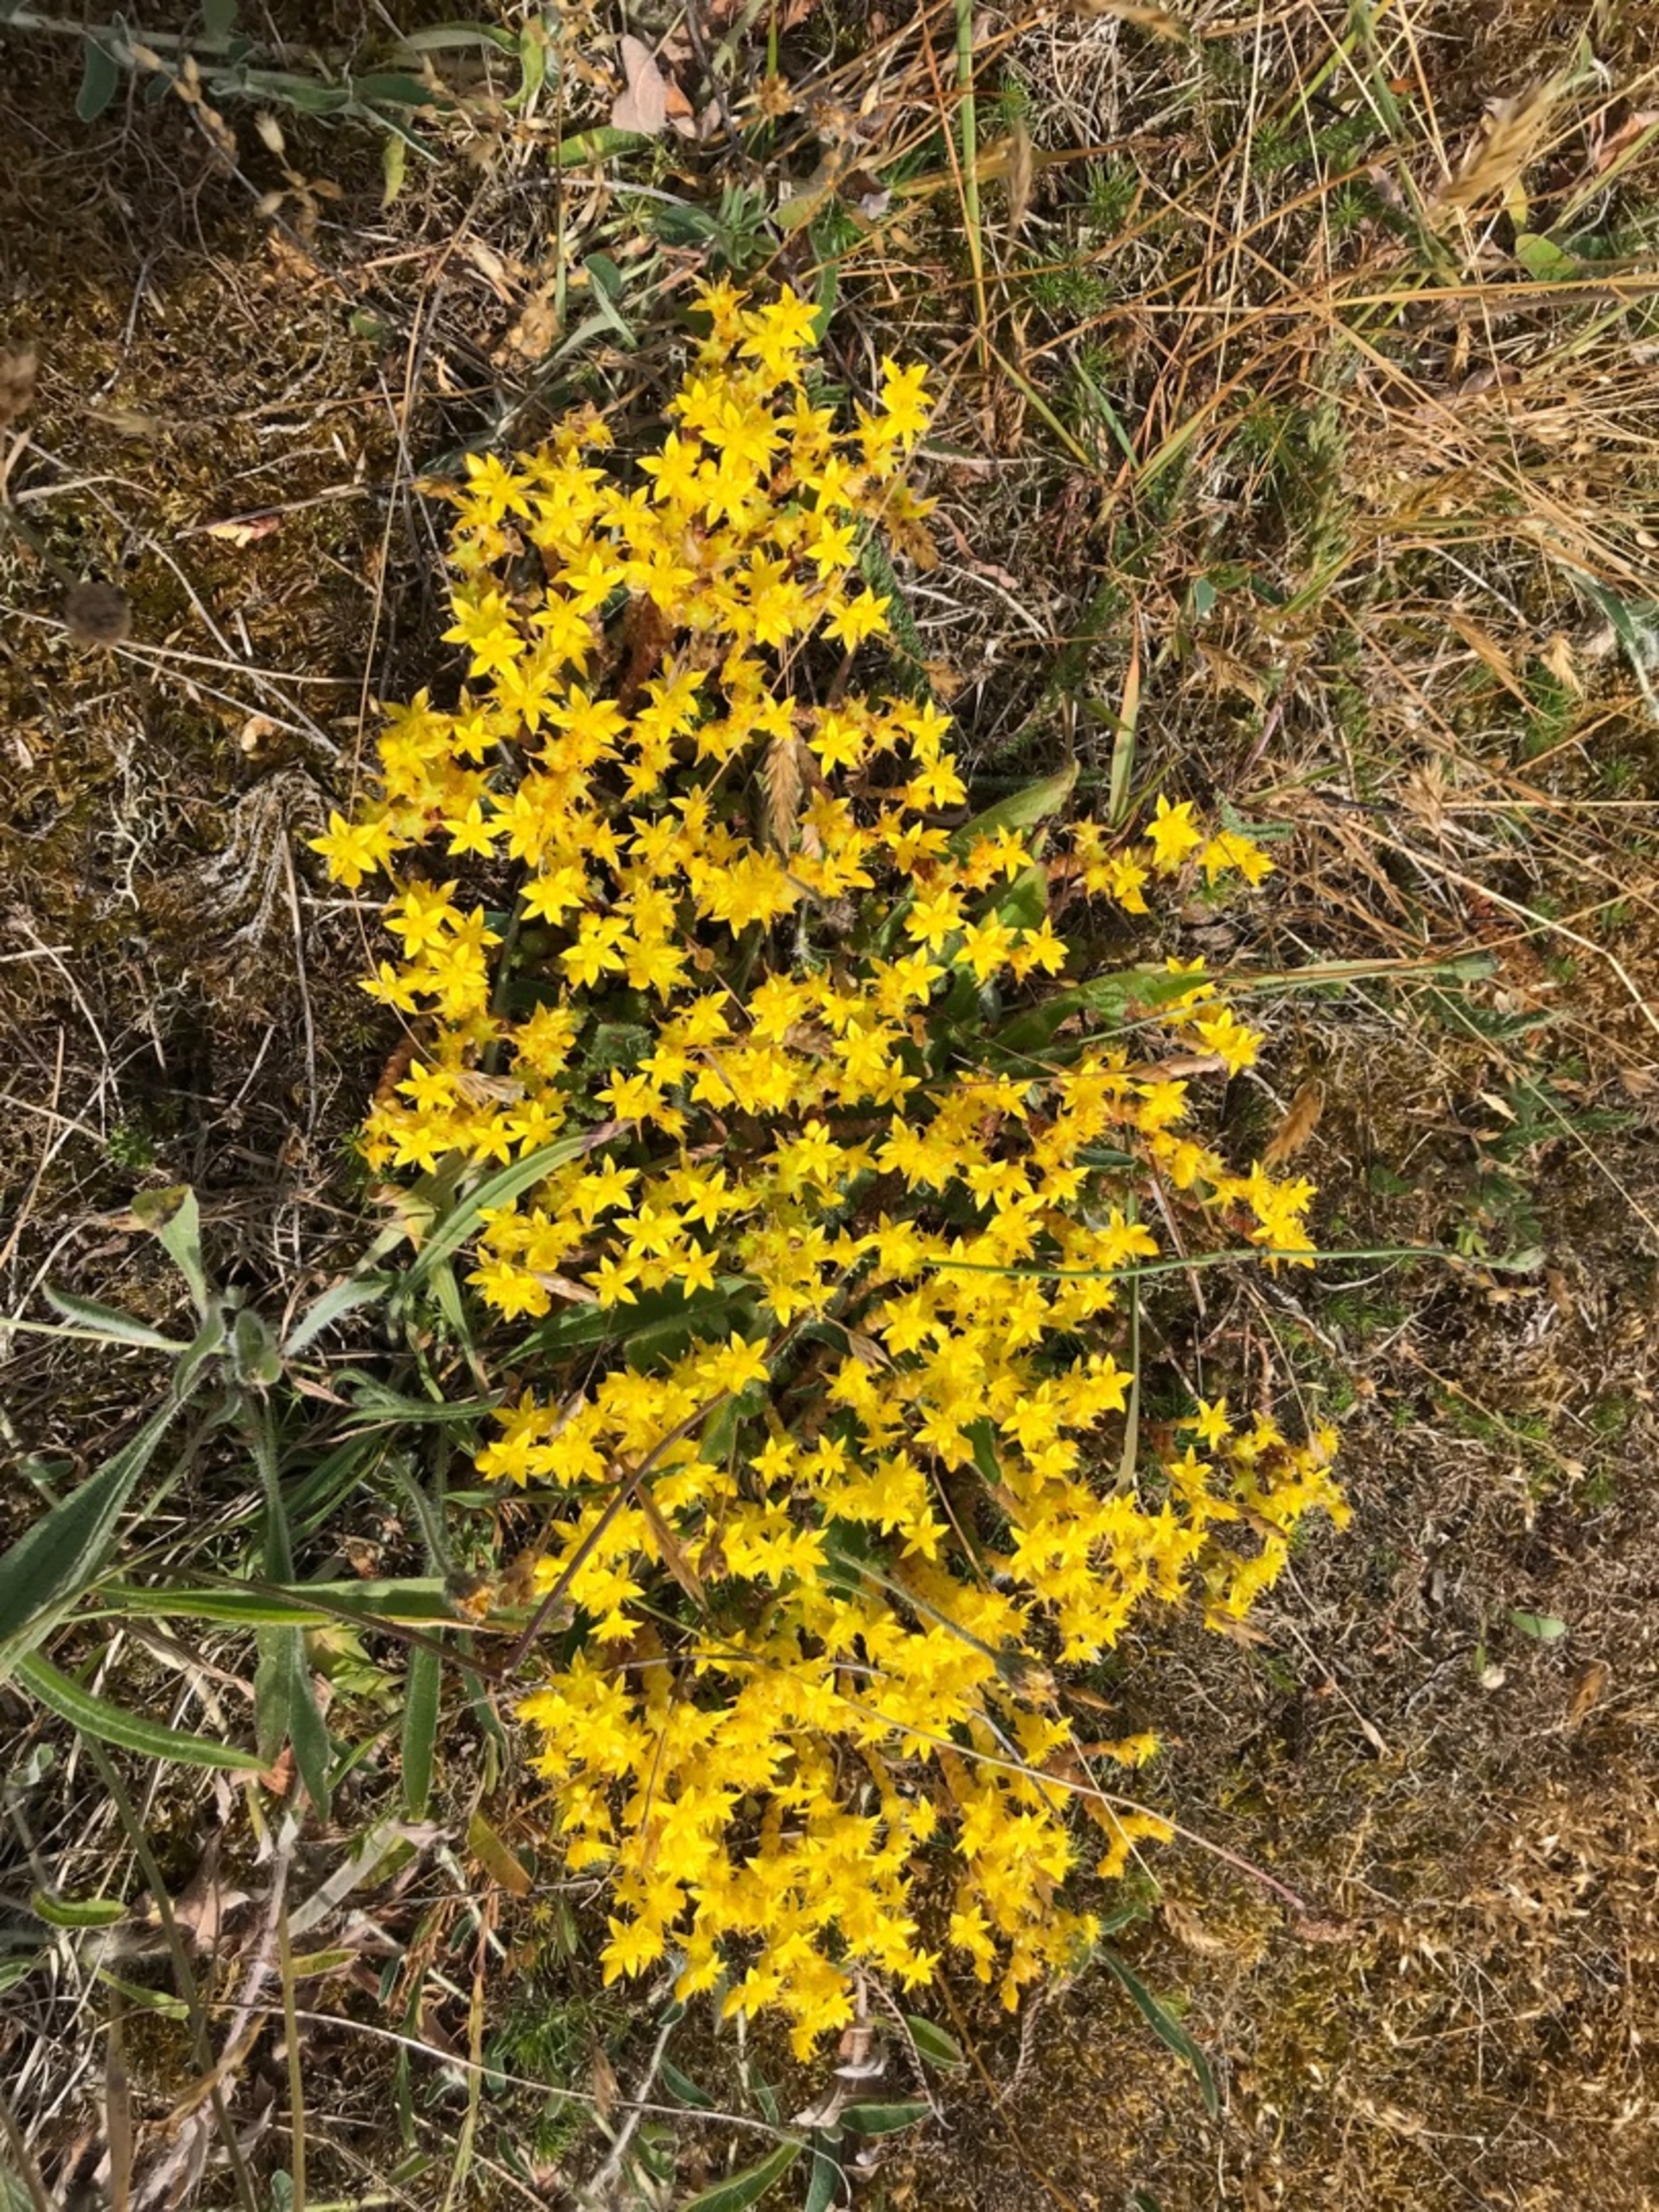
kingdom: Plantae
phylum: Tracheophyta
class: Magnoliopsida
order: Saxifragales
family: Crassulaceae
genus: Sedum
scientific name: Sedum acre
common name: Bidende stenurt
